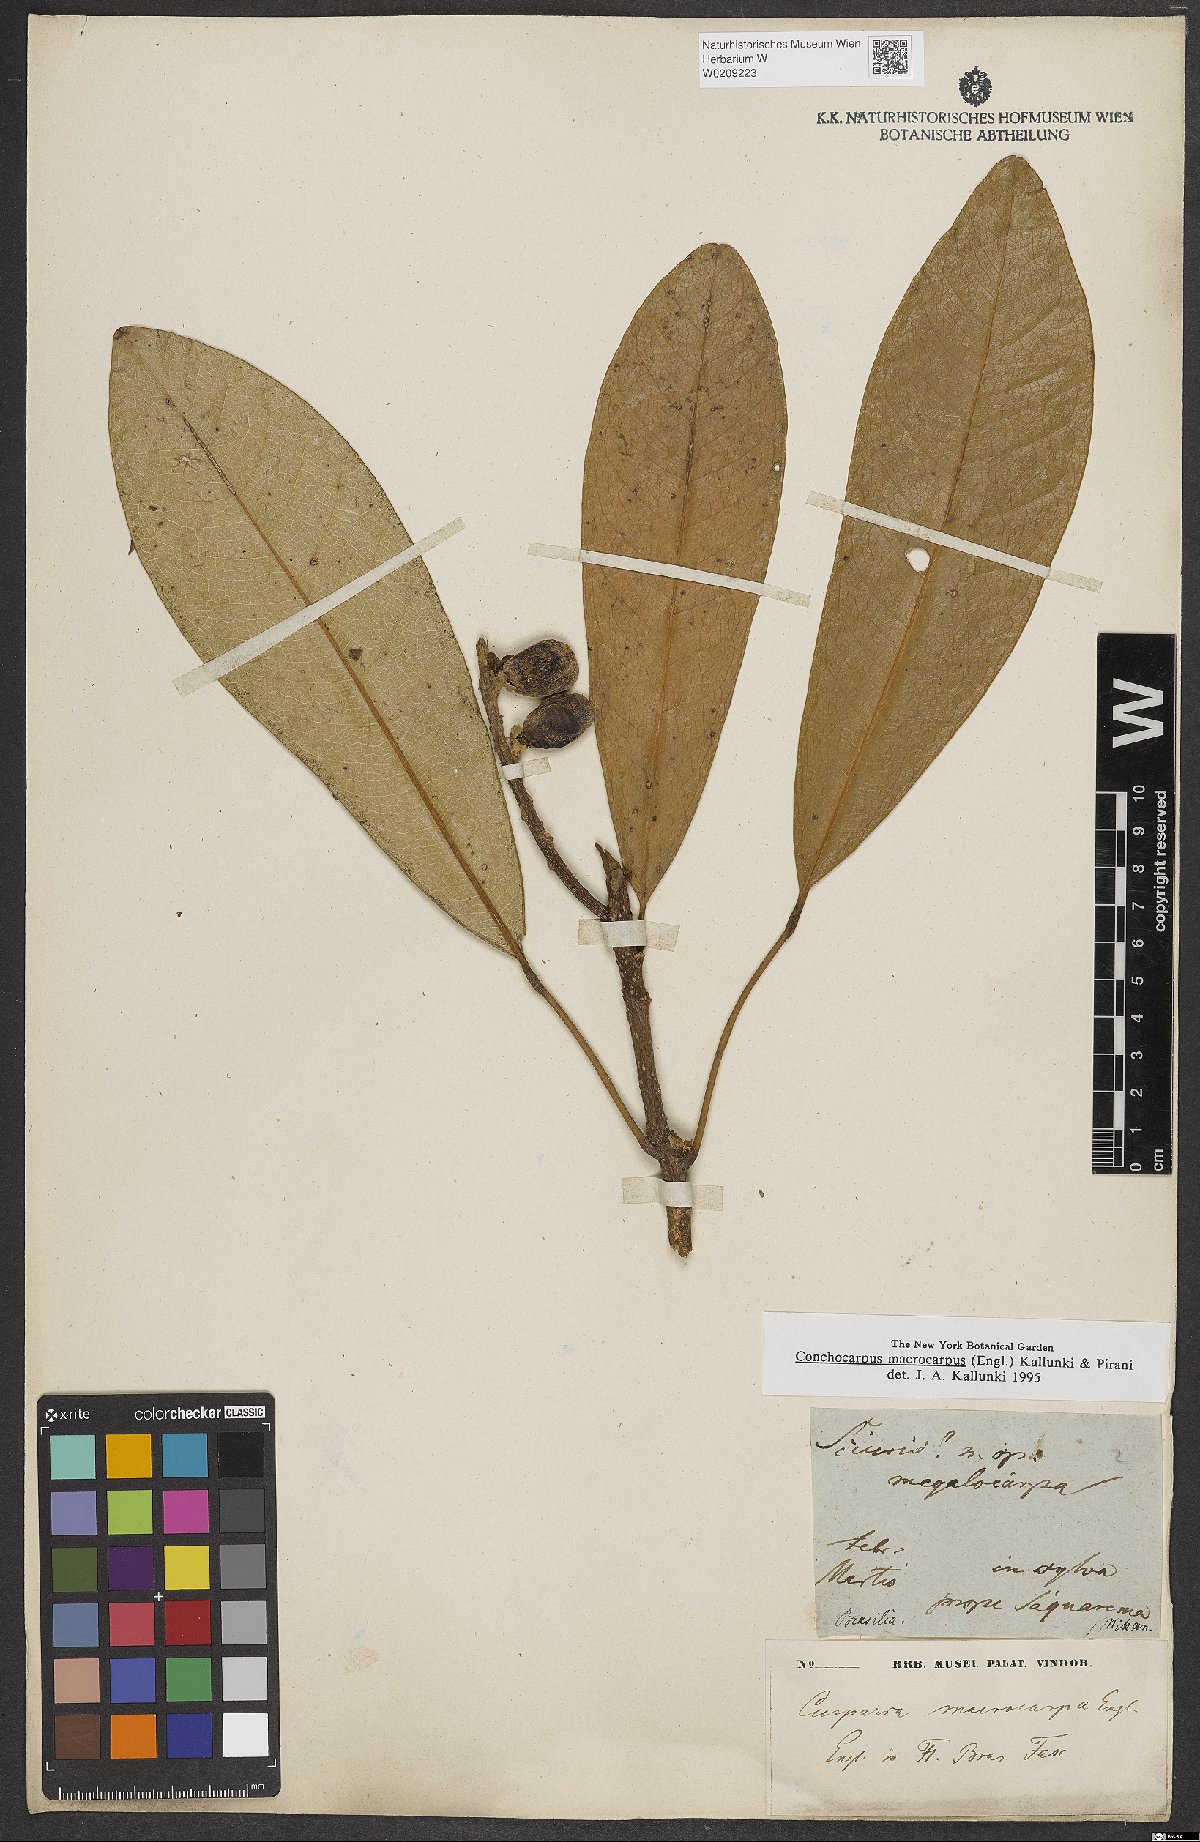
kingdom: Plantae
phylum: Tracheophyta
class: Magnoliopsida
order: Sapindales
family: Rutaceae
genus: Conchocarpus
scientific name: Conchocarpus macrocarpus
